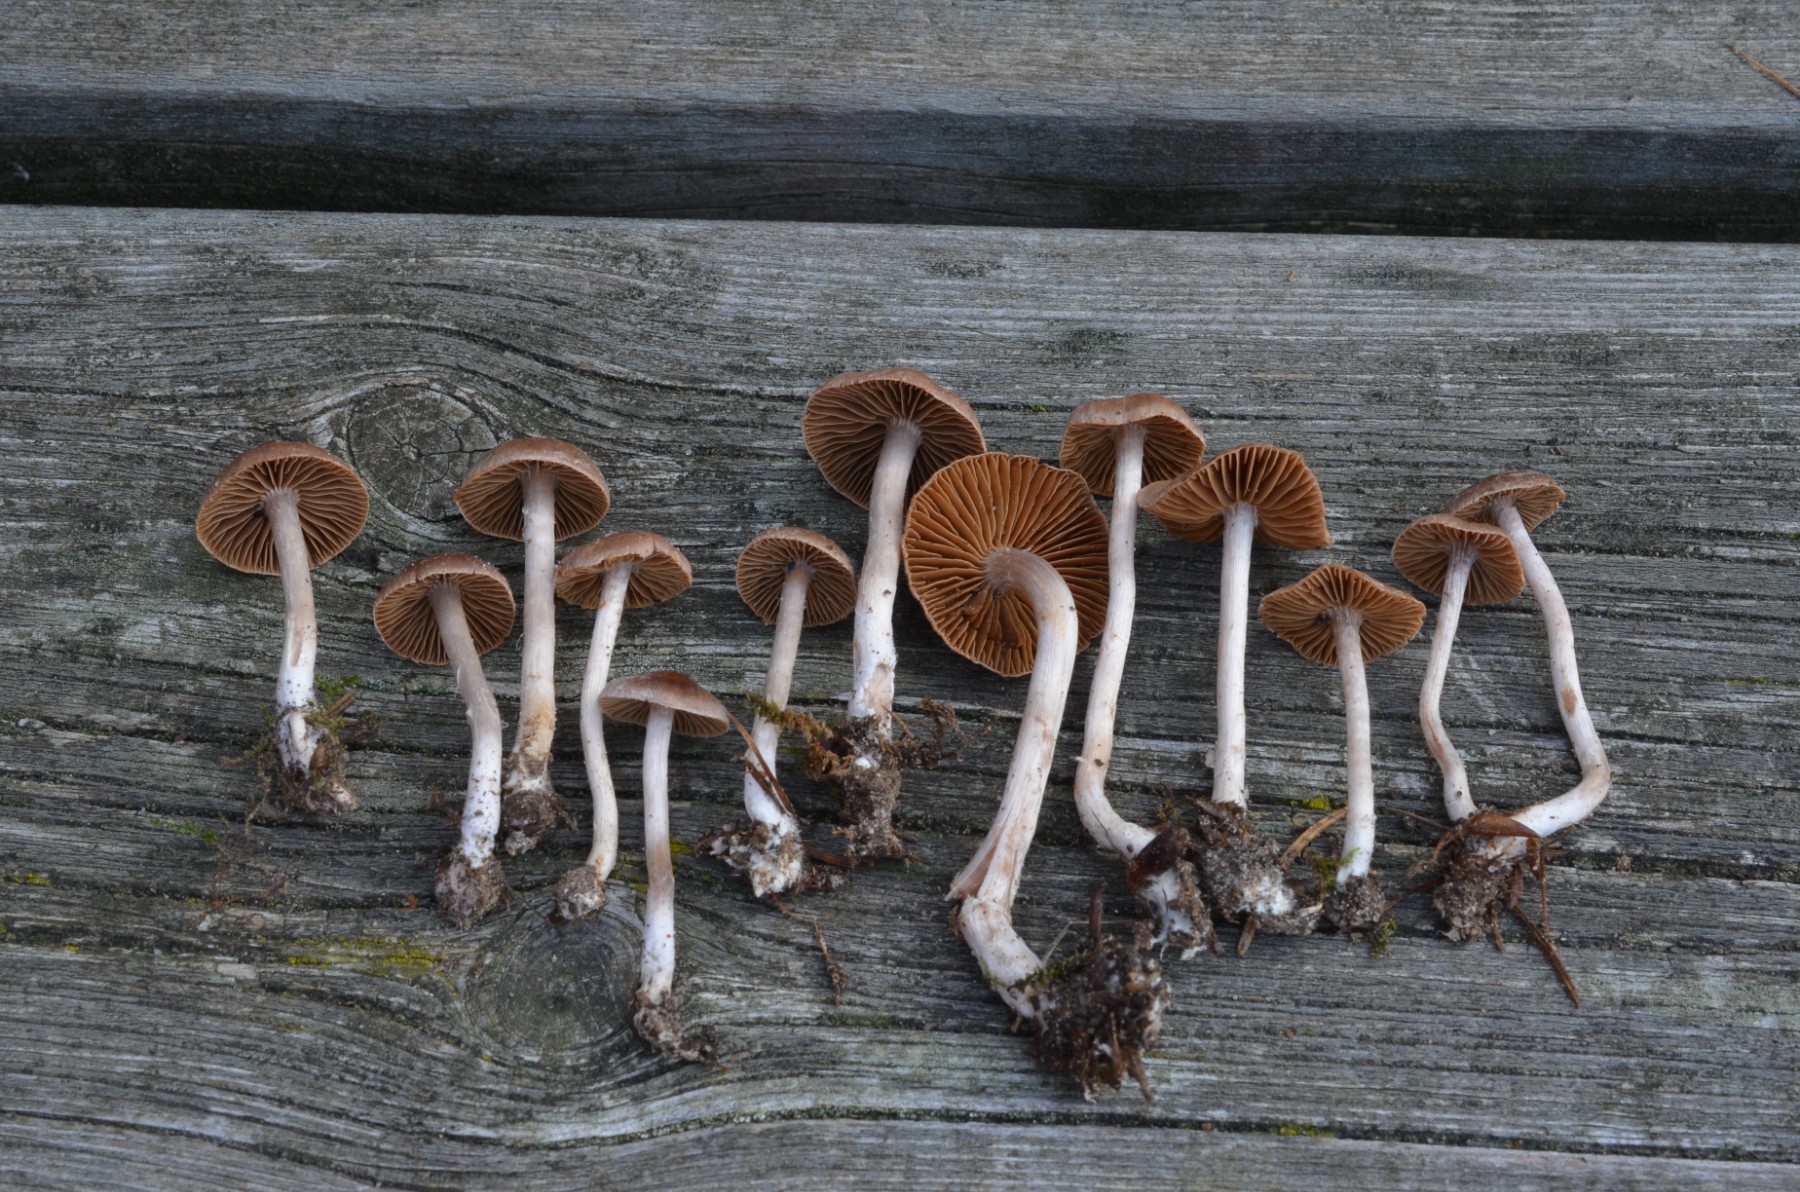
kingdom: Fungi
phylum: Basidiomycota
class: Agaricomycetes
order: Agaricales
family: Cortinariaceae
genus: Cortinarius
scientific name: Cortinarius campester
